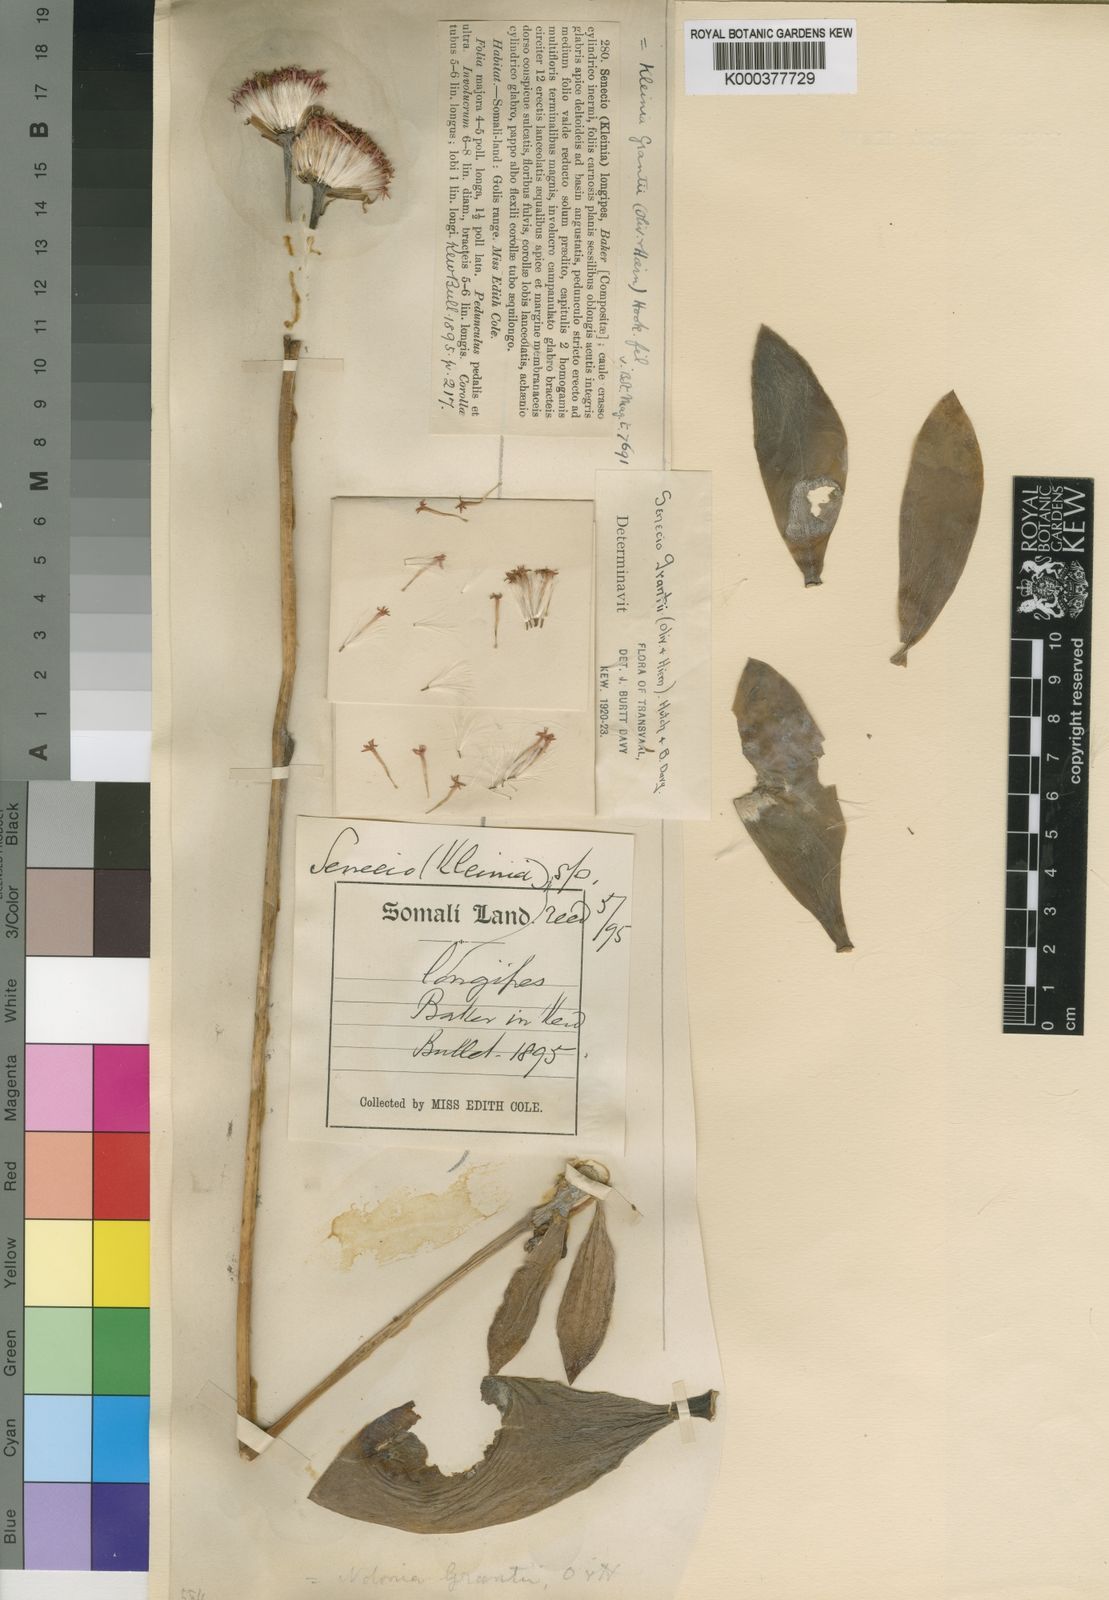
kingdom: Plantae
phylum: Tracheophyta
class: Magnoliopsida
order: Asterales
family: Asteraceae
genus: Kleinia
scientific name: Kleinia grantii
